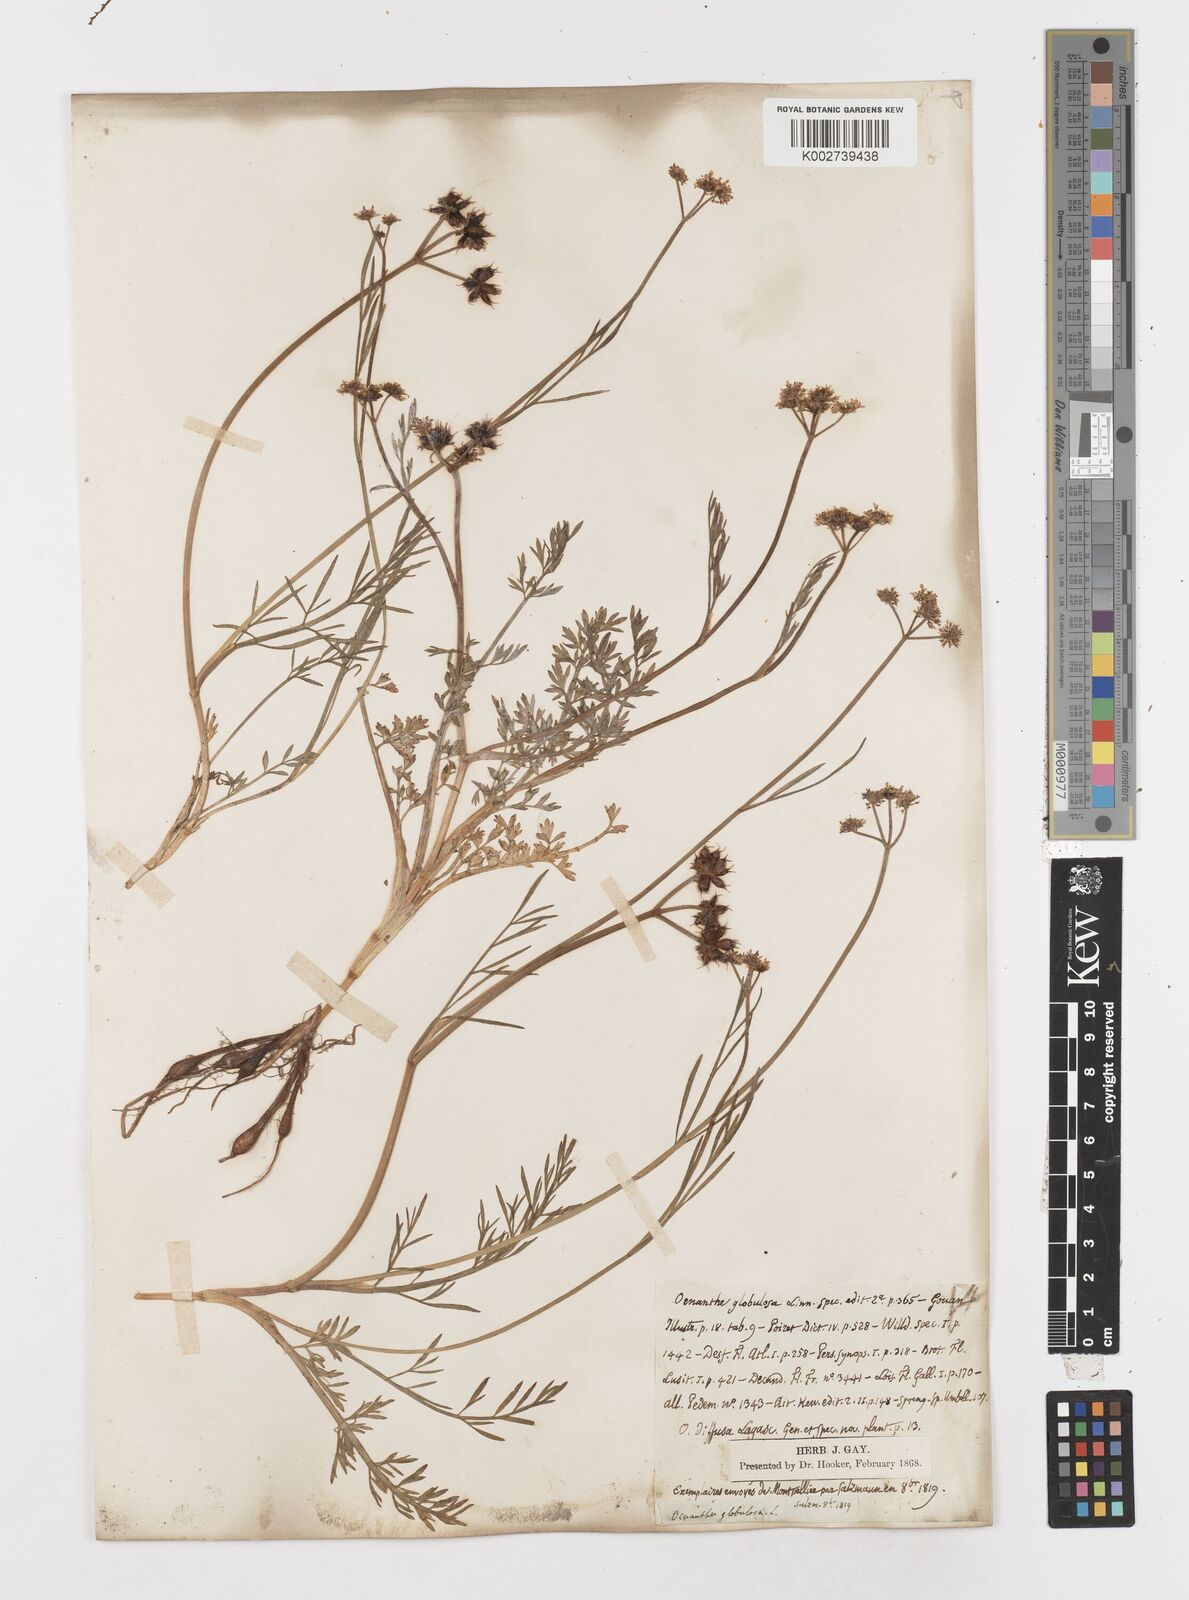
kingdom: Plantae
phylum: Tracheophyta
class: Magnoliopsida
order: Apiales
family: Apiaceae
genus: Oenanthe
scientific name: Oenanthe globulosa
